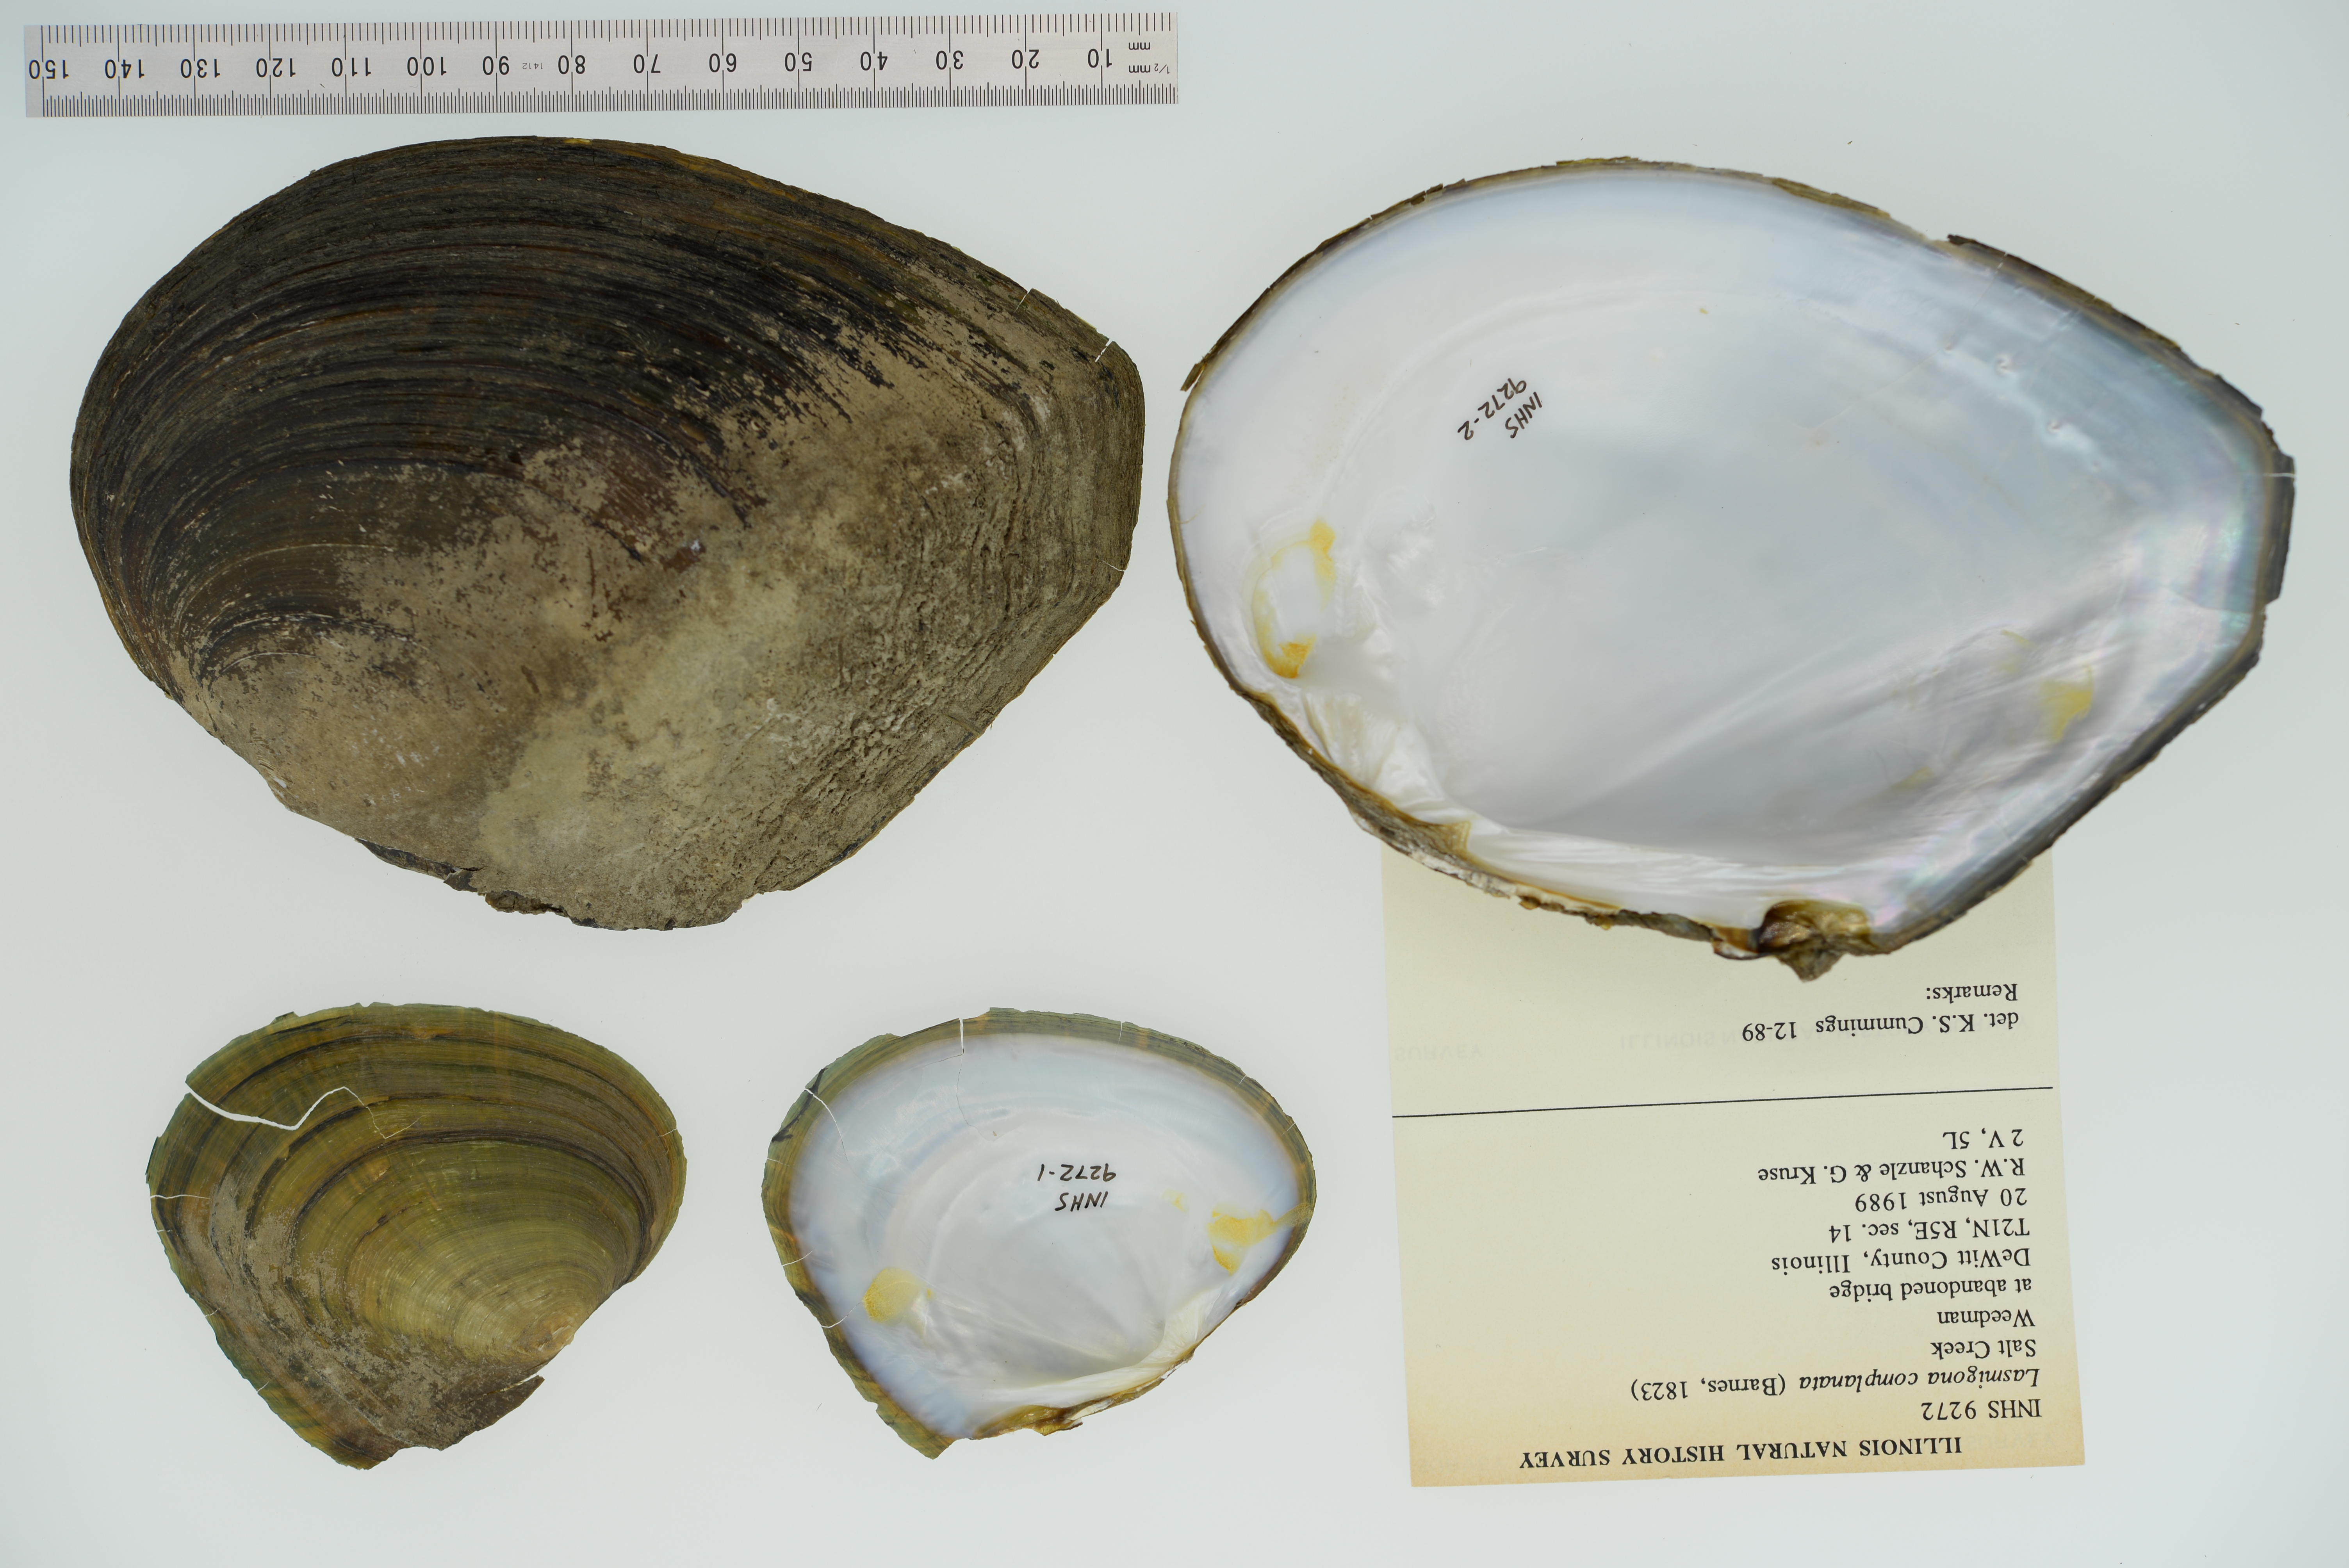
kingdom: Animalia
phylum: Mollusca
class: Bivalvia
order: Unionida
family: Unionidae
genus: Lasmigona
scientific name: Lasmigona complanata
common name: White heelsplitter
